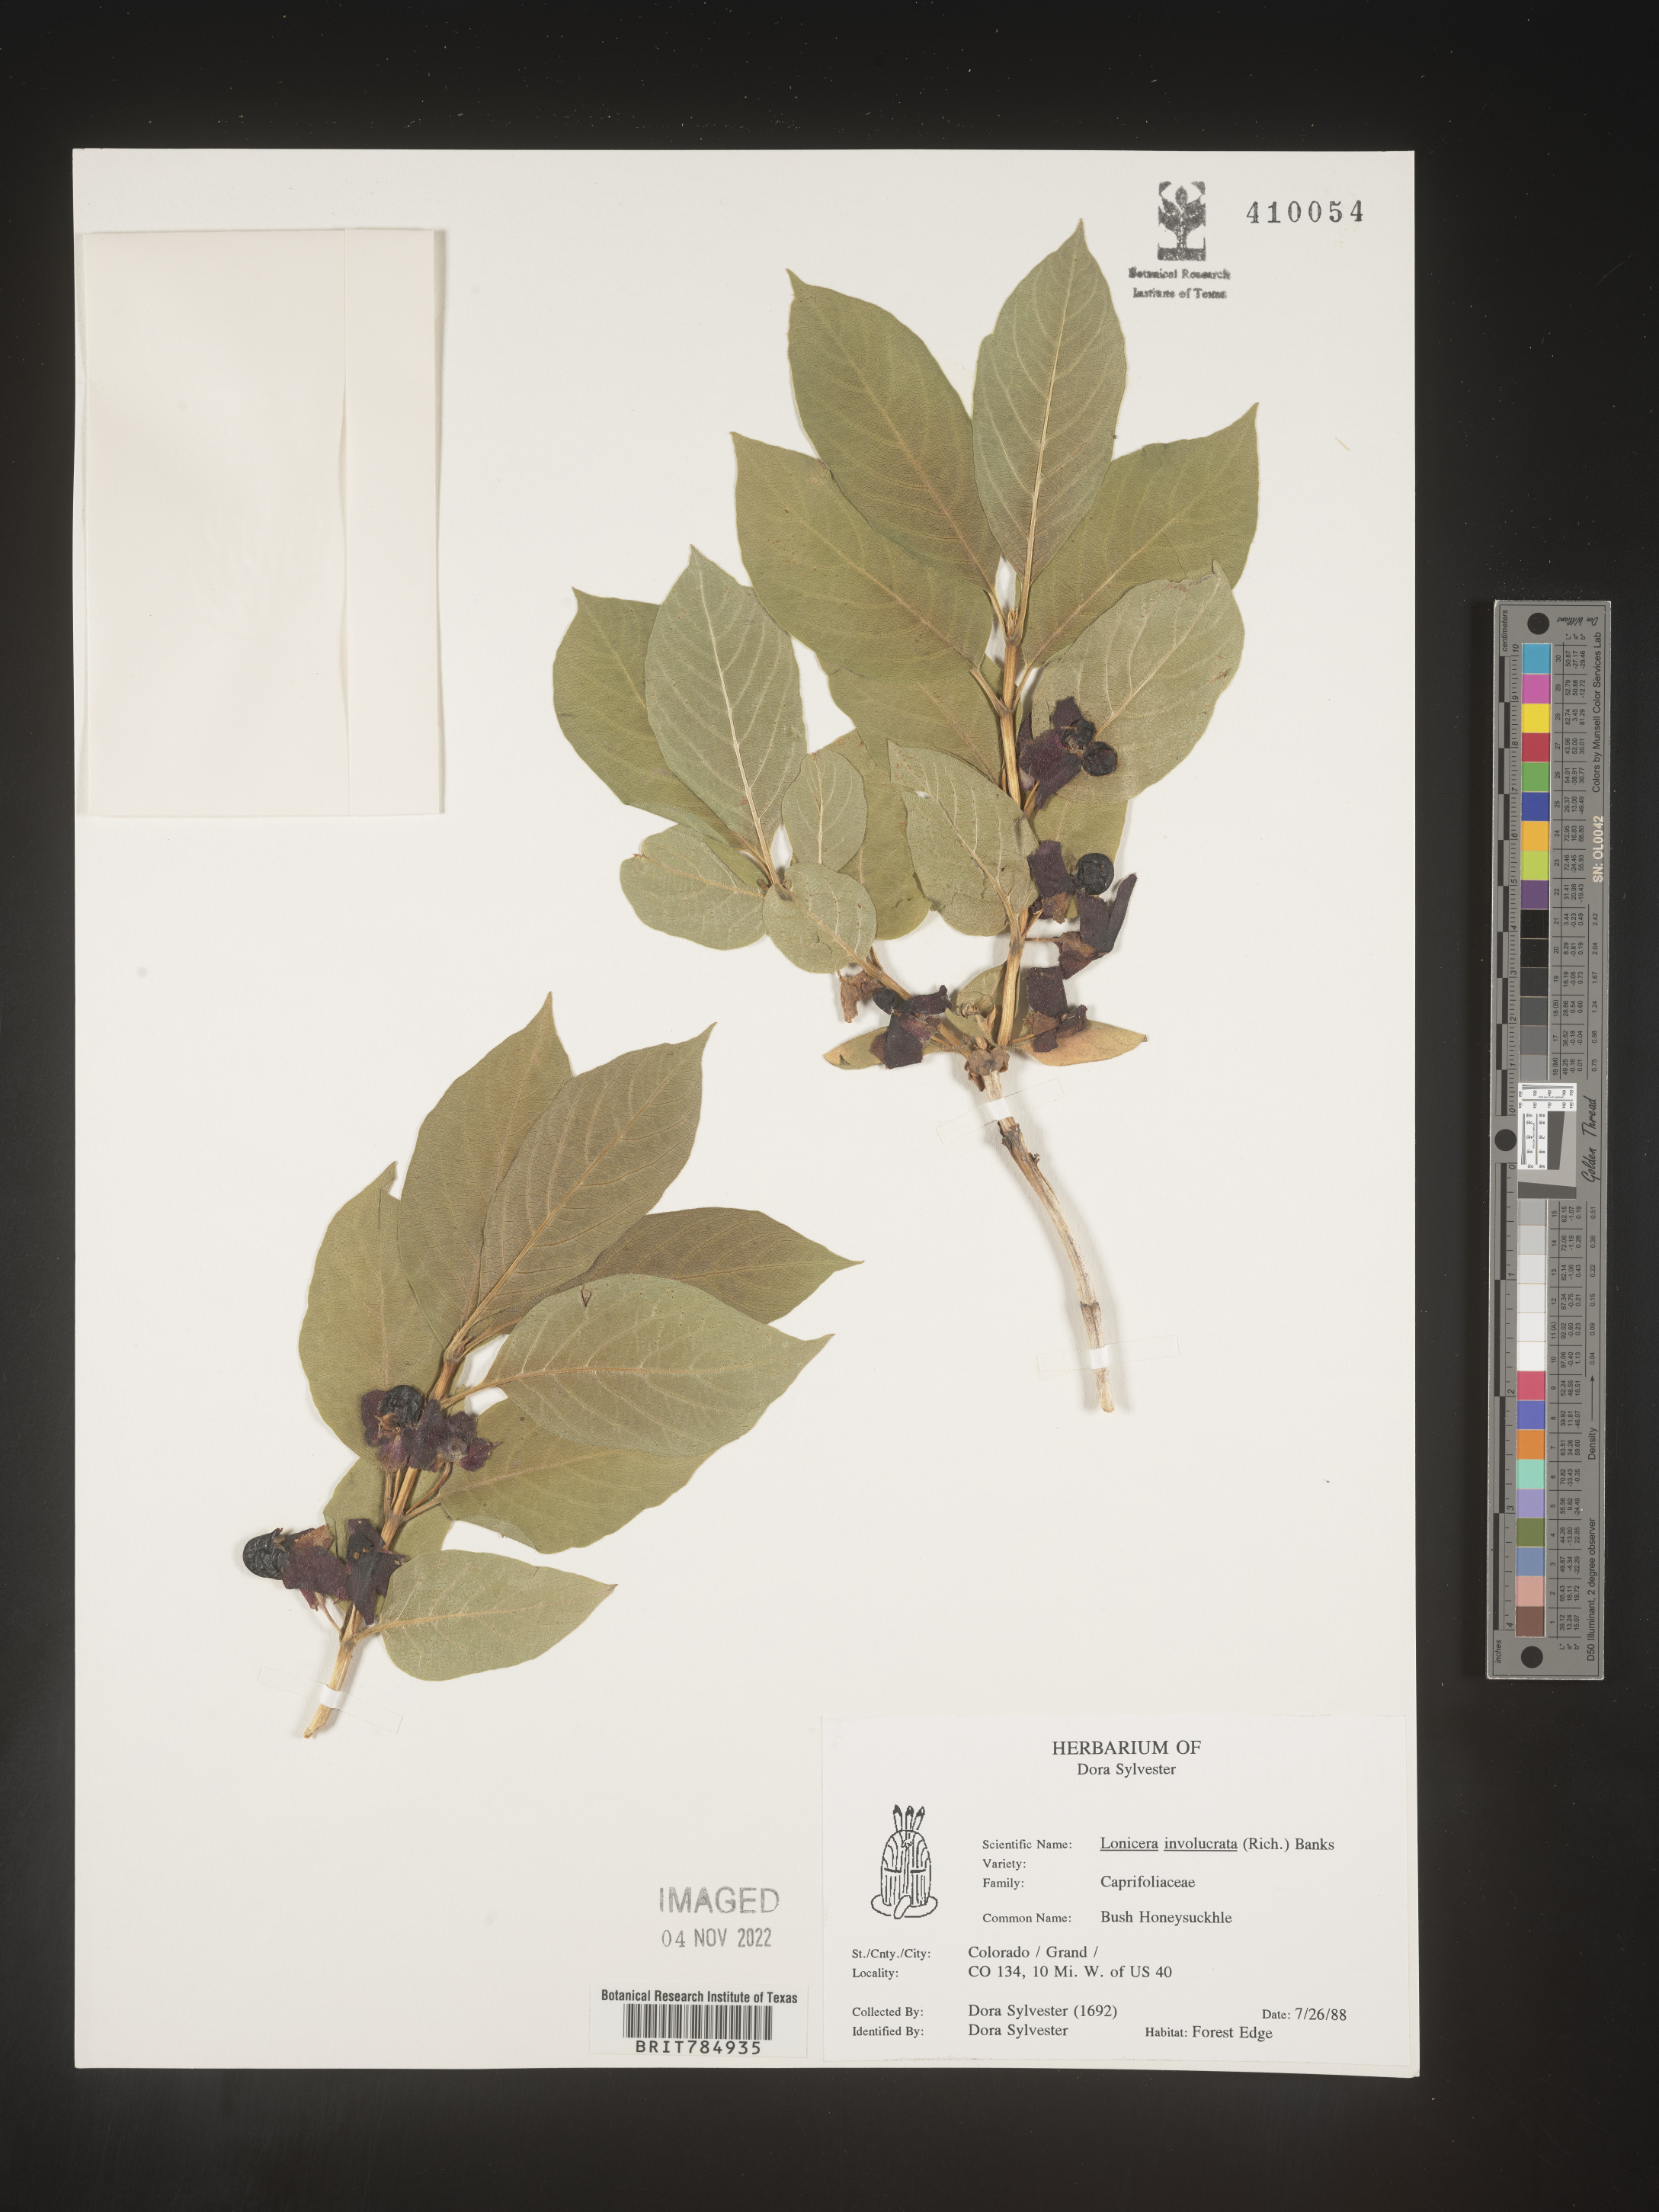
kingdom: Plantae
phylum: Tracheophyta
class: Magnoliopsida
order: Dipsacales
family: Caprifoliaceae
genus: Lonicera
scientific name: Lonicera involucrata
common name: Californian honeysuckle
